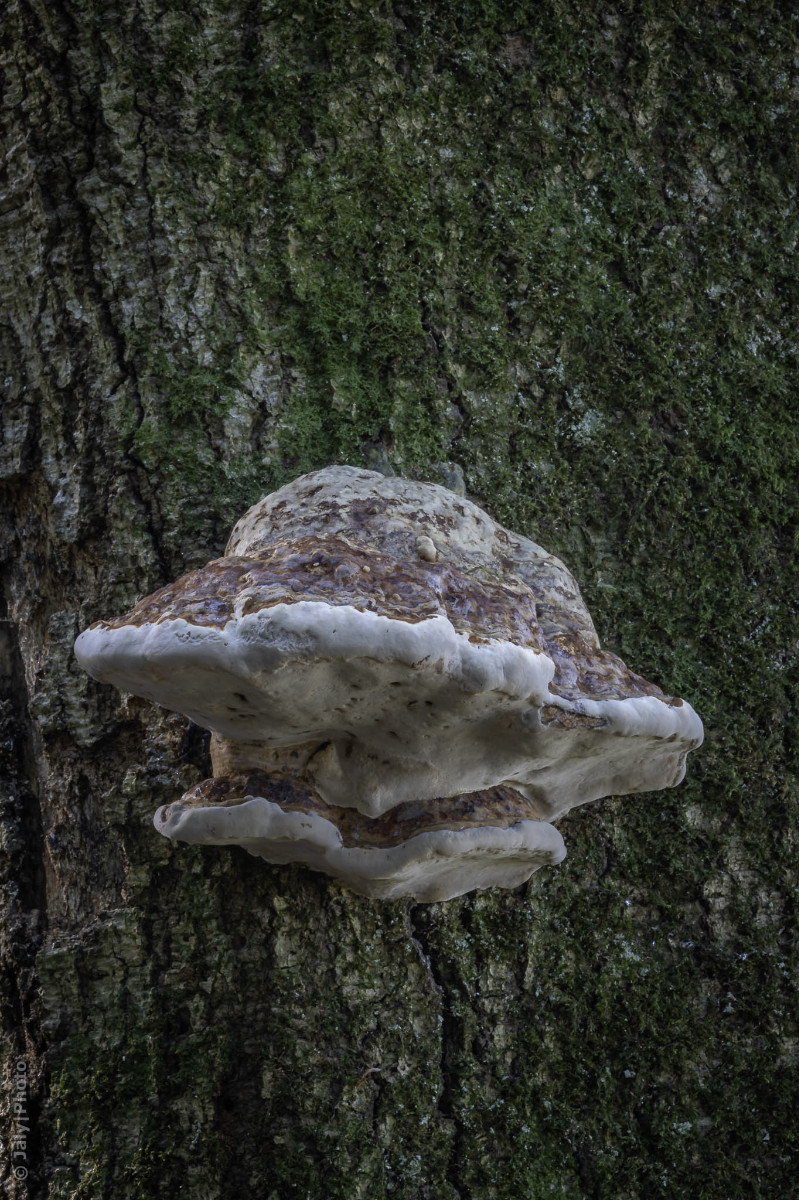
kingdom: Fungi
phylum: Basidiomycota
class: Agaricomycetes
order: Polyporales
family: Polyporaceae
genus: Fomes
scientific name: Fomes fomentarius
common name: tøndersvamp
